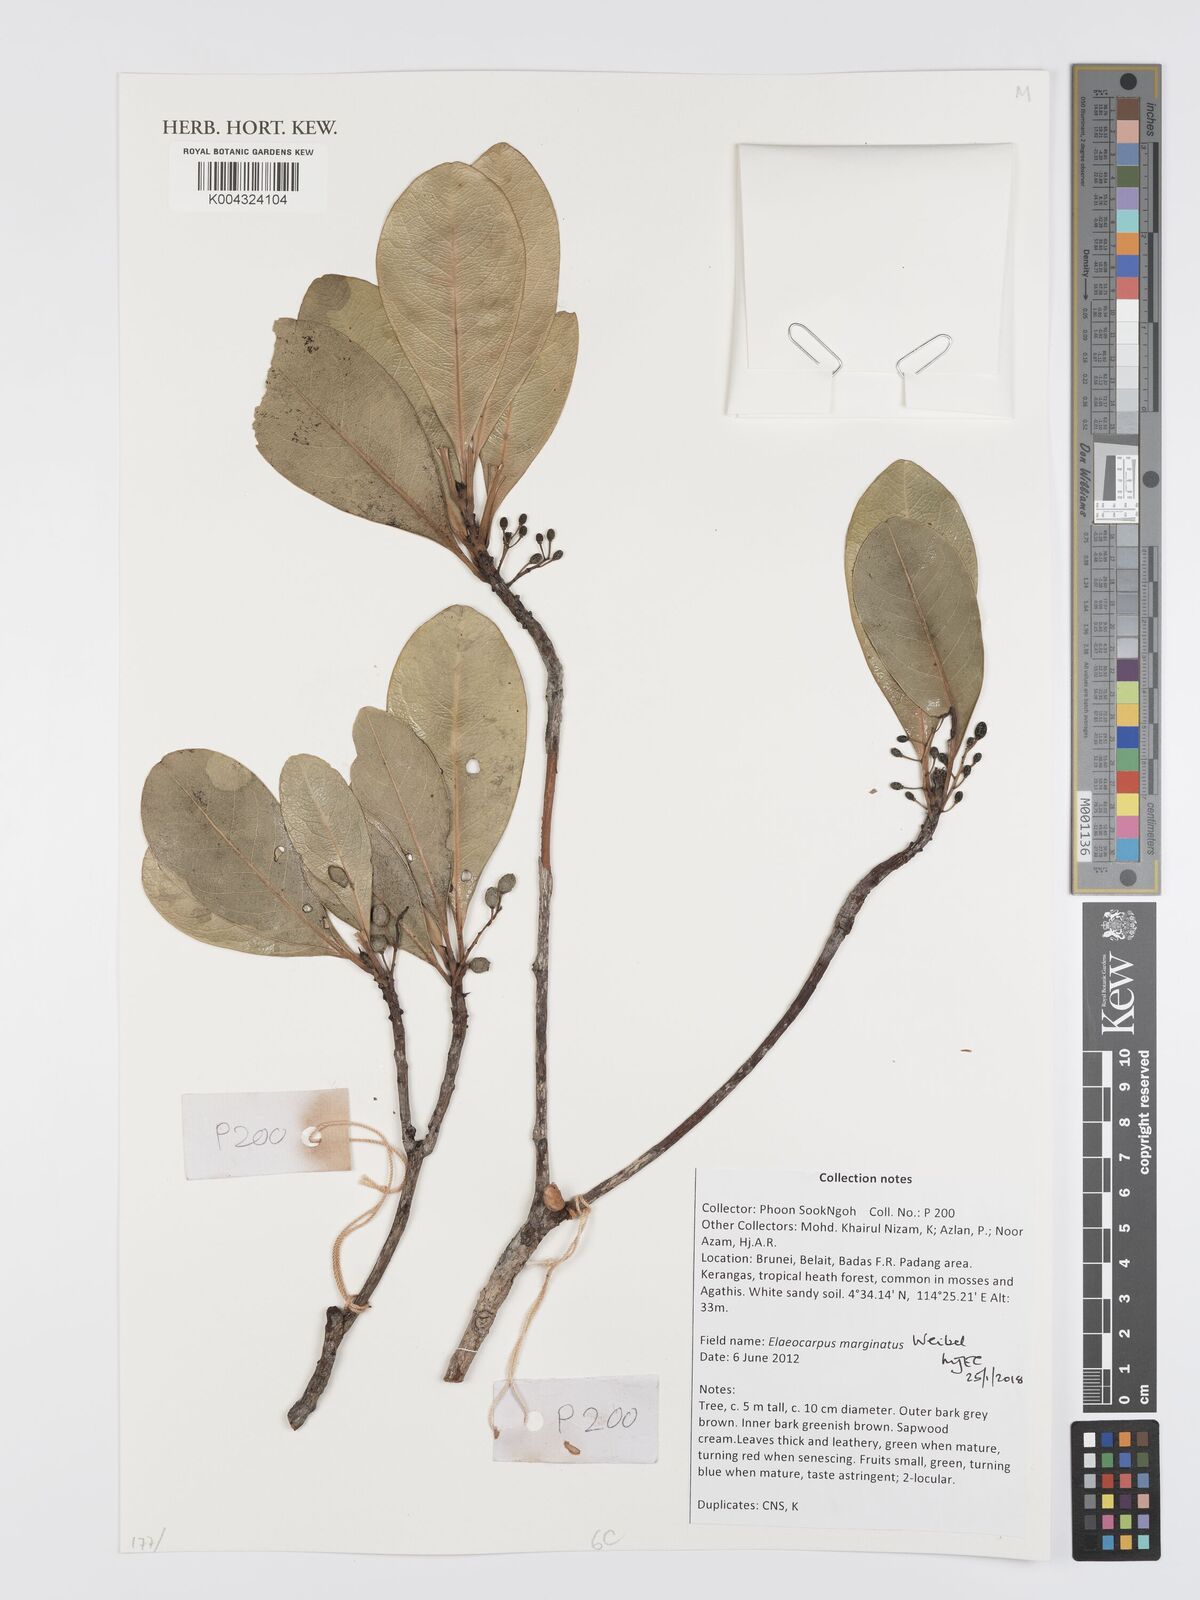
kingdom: Plantae
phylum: Tracheophyta
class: Magnoliopsida
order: Oxalidales
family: Elaeocarpaceae
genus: Elaeocarpus
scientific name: Elaeocarpus marginatus
